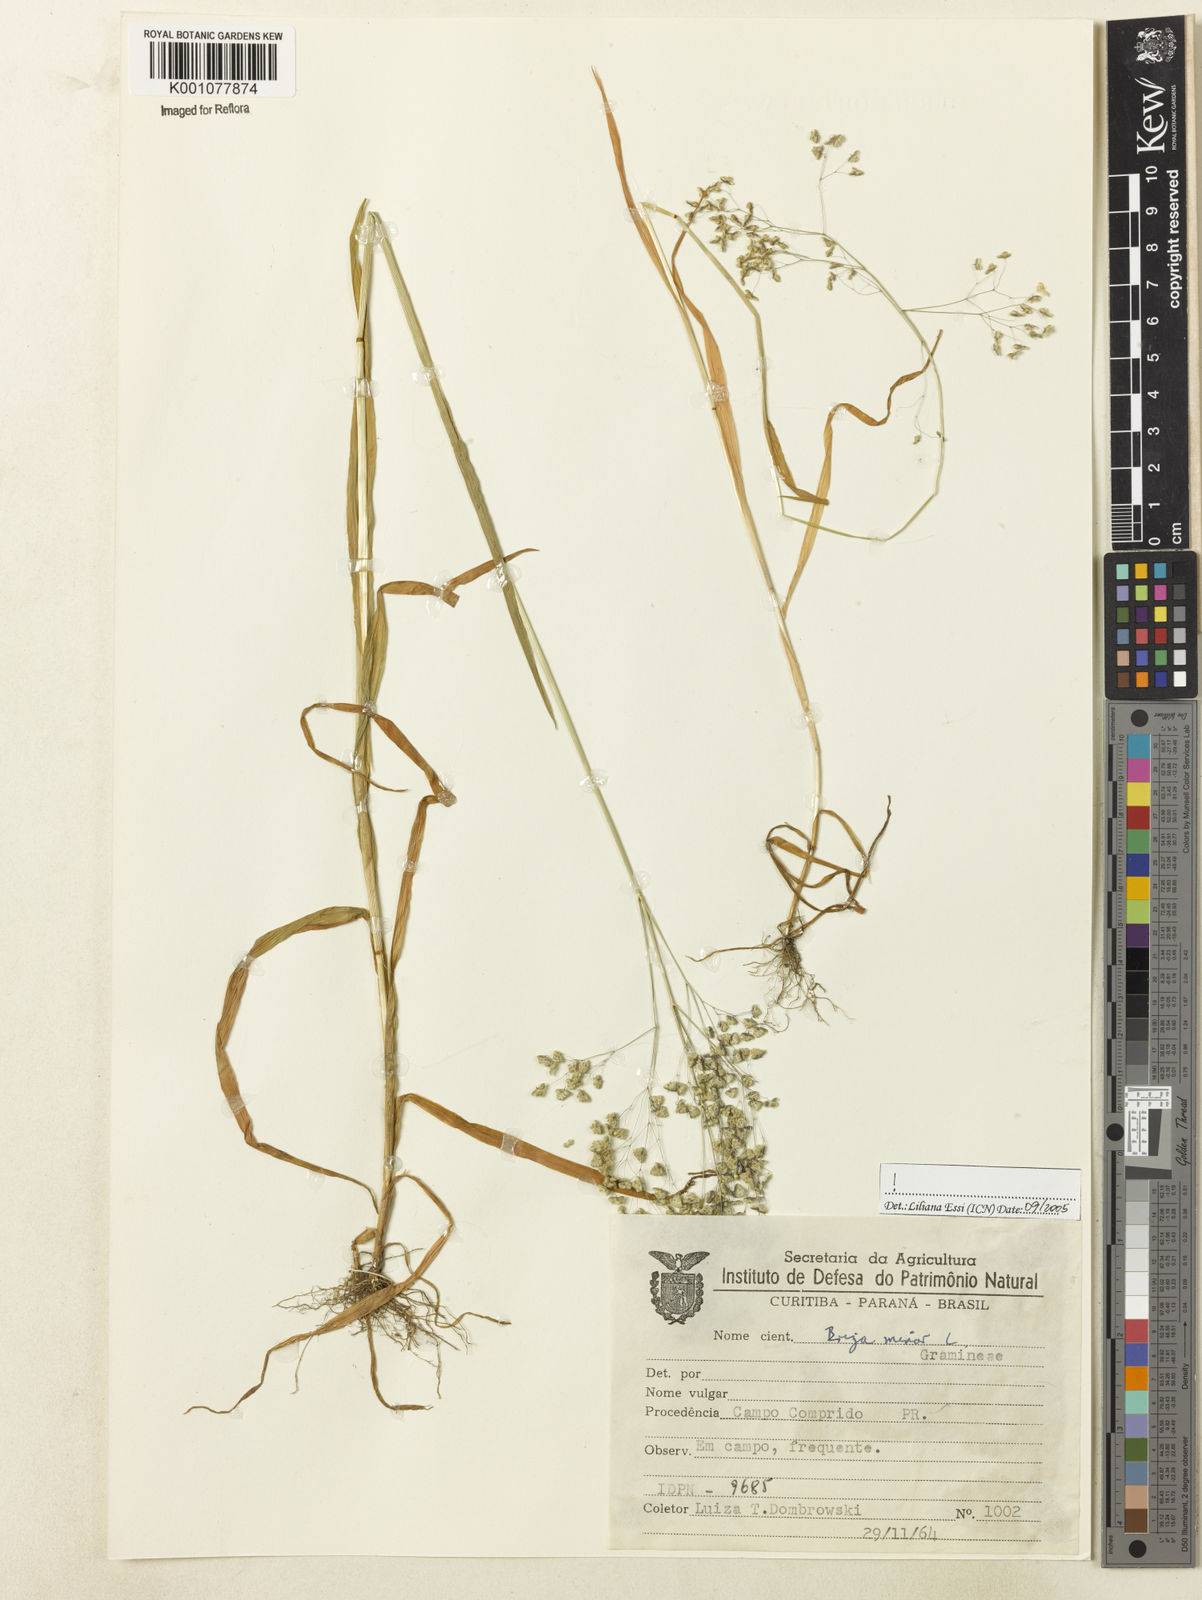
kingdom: Plantae
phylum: Tracheophyta
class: Liliopsida
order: Poales
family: Poaceae
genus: Briza
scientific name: Briza minor
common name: Lesser quaking-grass
